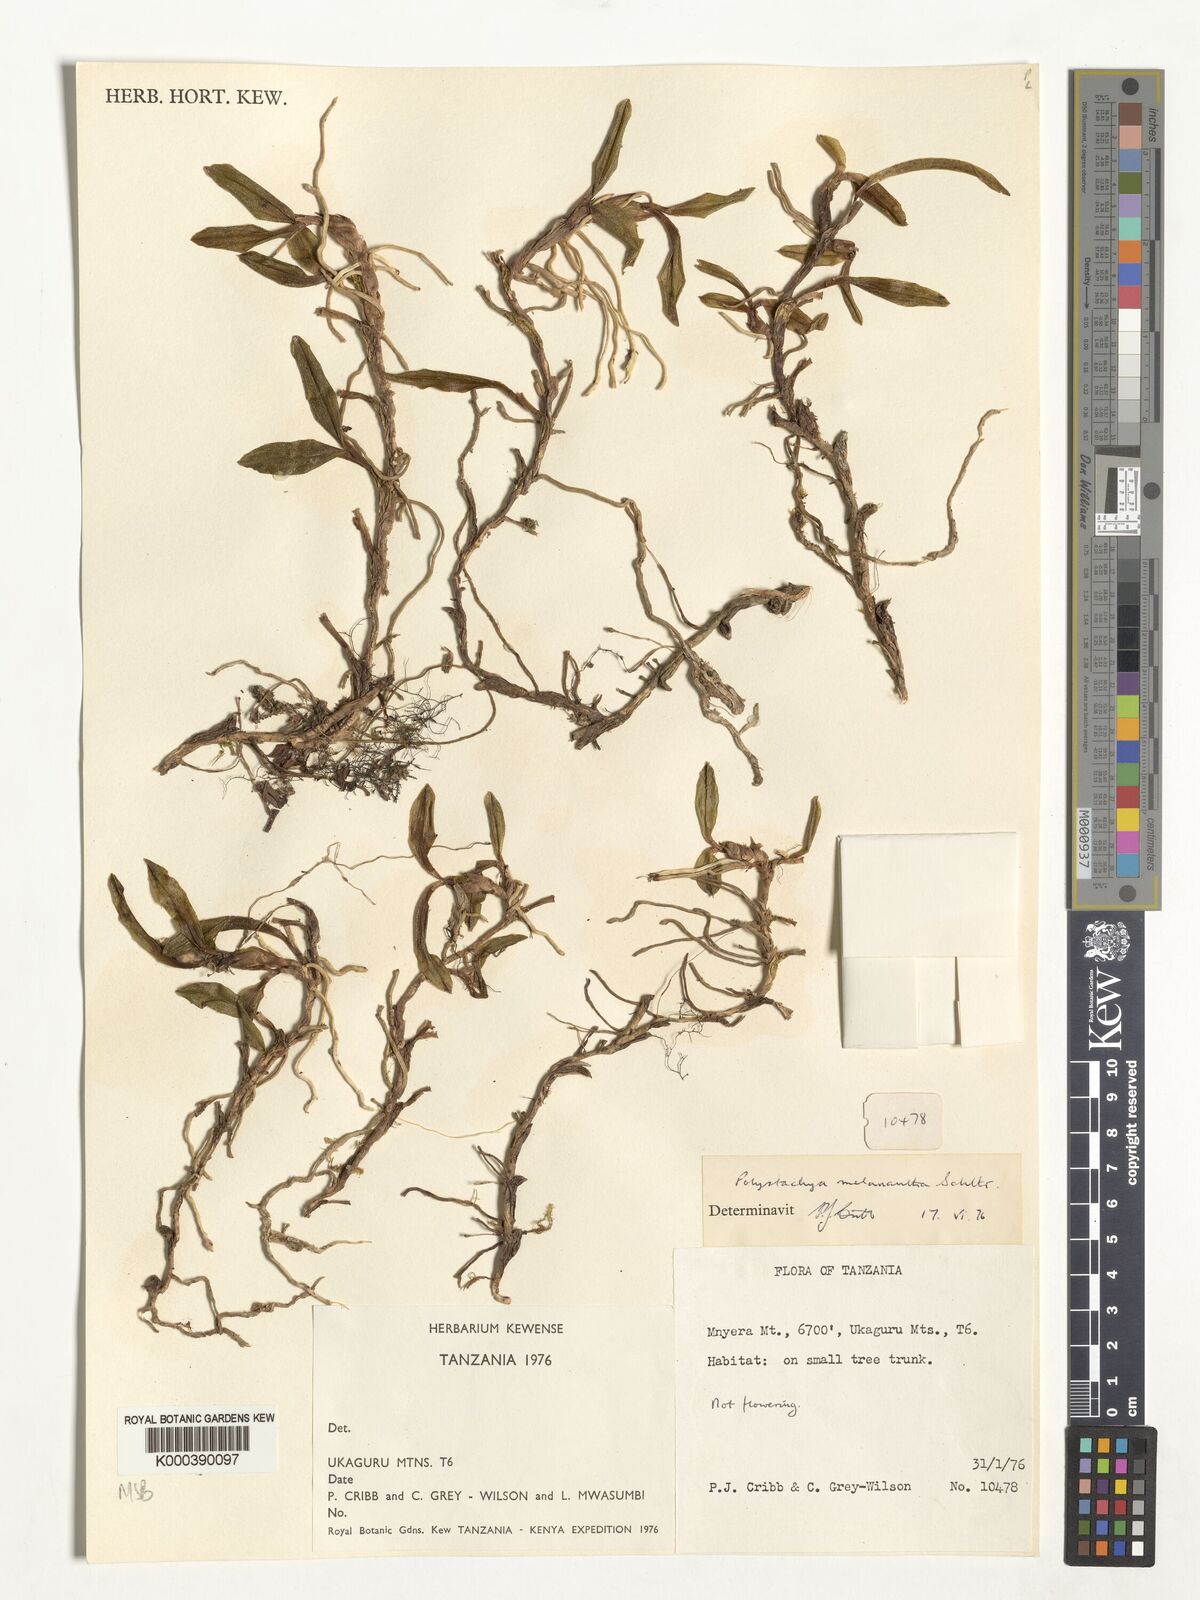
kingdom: Plantae
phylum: Tracheophyta
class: Liliopsida
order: Asparagales
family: Orchidaceae
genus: Polystachya
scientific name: Polystachya melanantha
